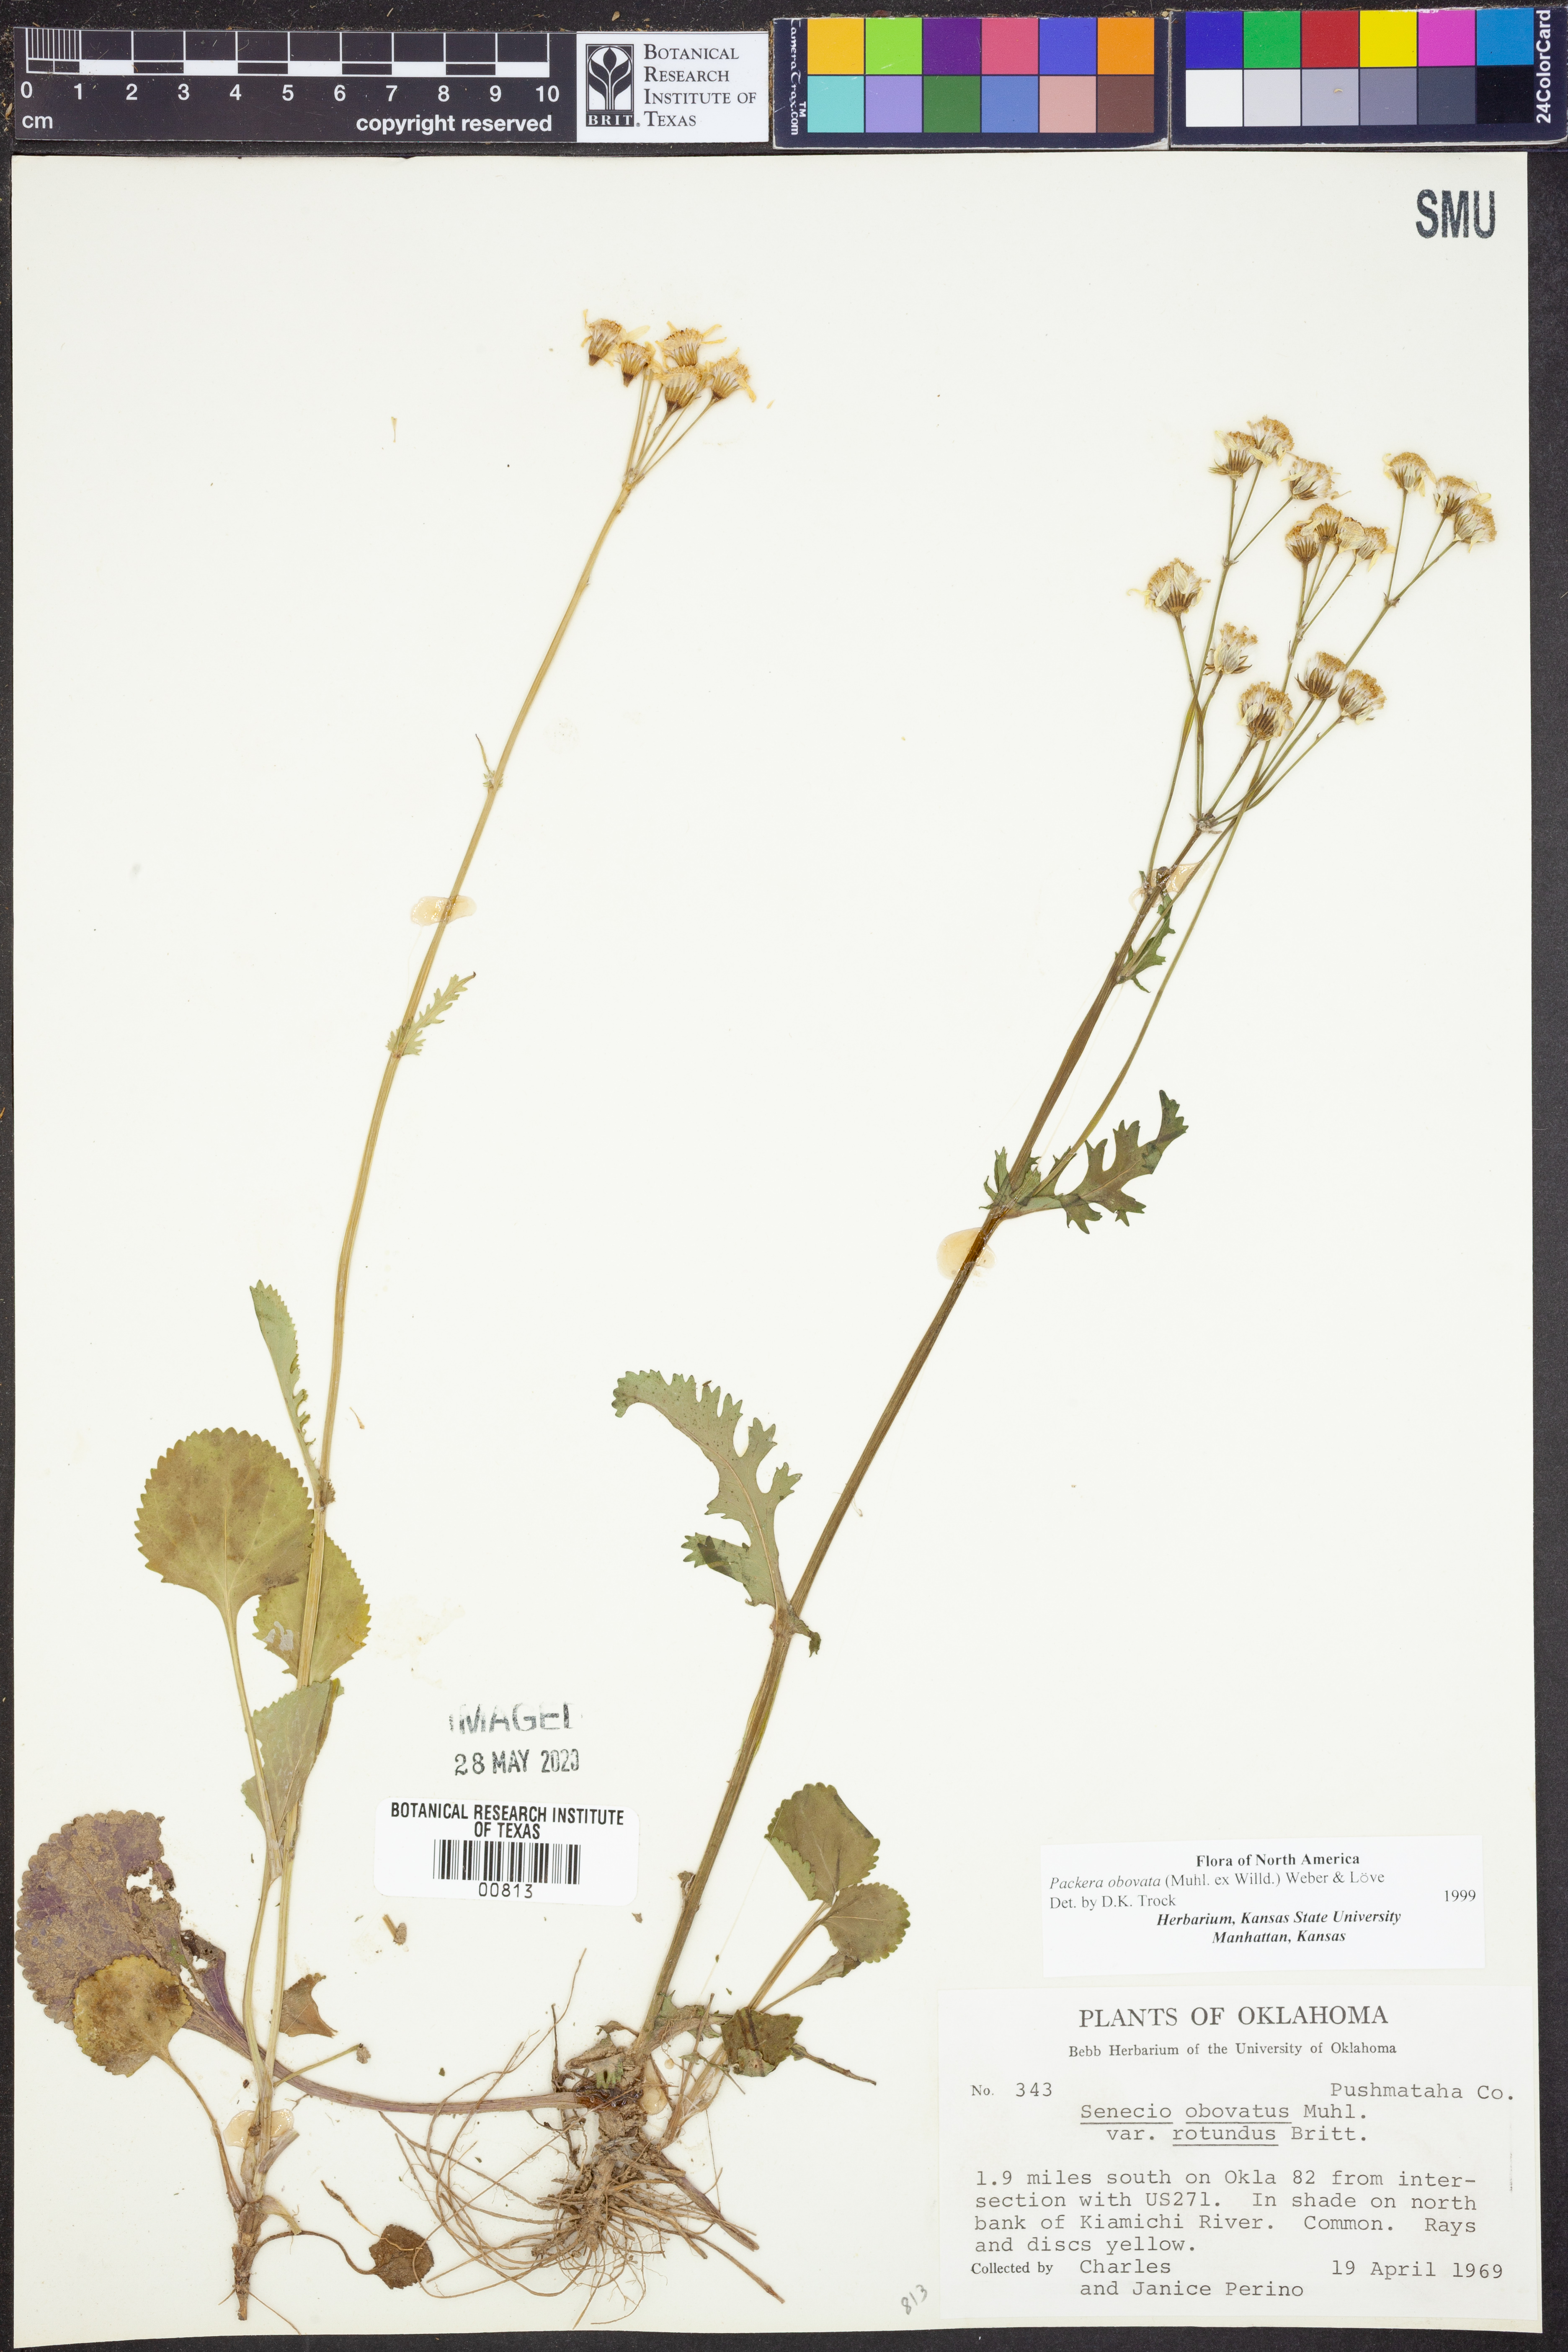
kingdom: Plantae
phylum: Tracheophyta
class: Magnoliopsida
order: Asterales
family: Asteraceae
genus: Packera
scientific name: Packera obovata
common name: Round-leaf ragwort
